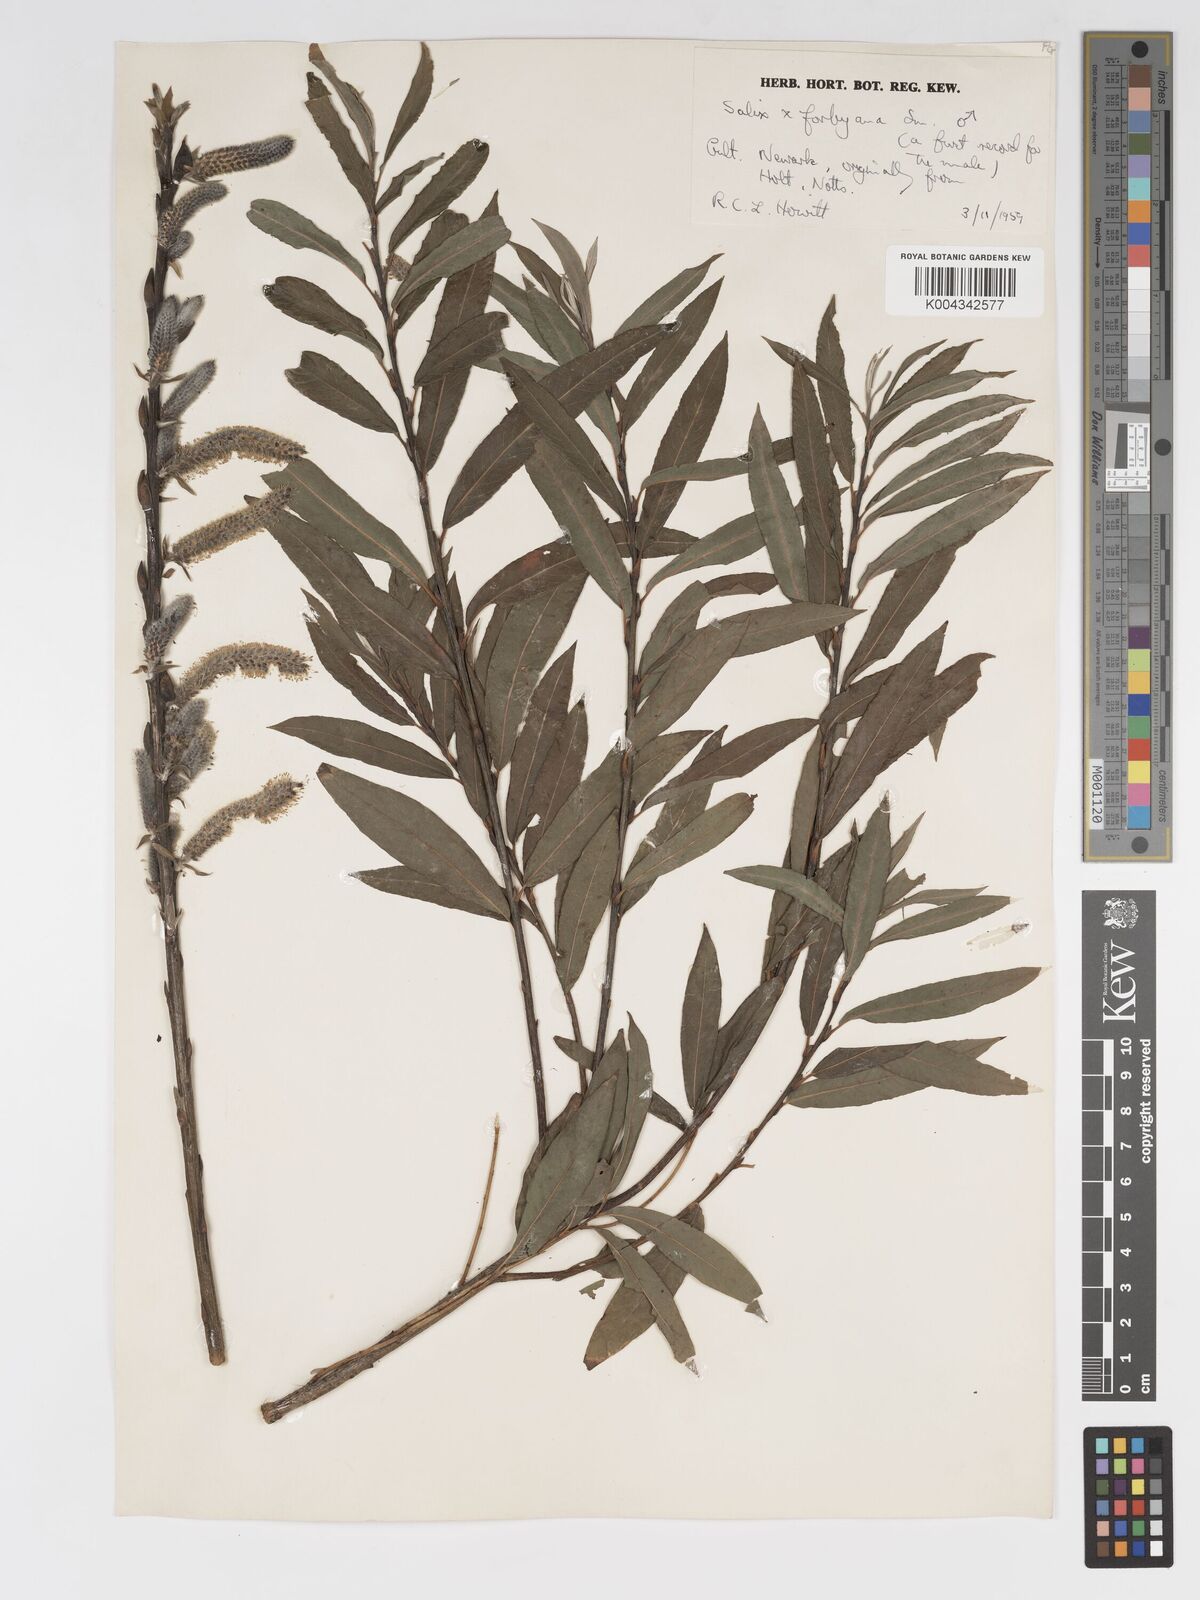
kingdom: Plantae
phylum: Tracheophyta
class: Magnoliopsida
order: Malpighiales
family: Salicaceae
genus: Salix
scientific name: Salix cinerea
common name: Common sallow
